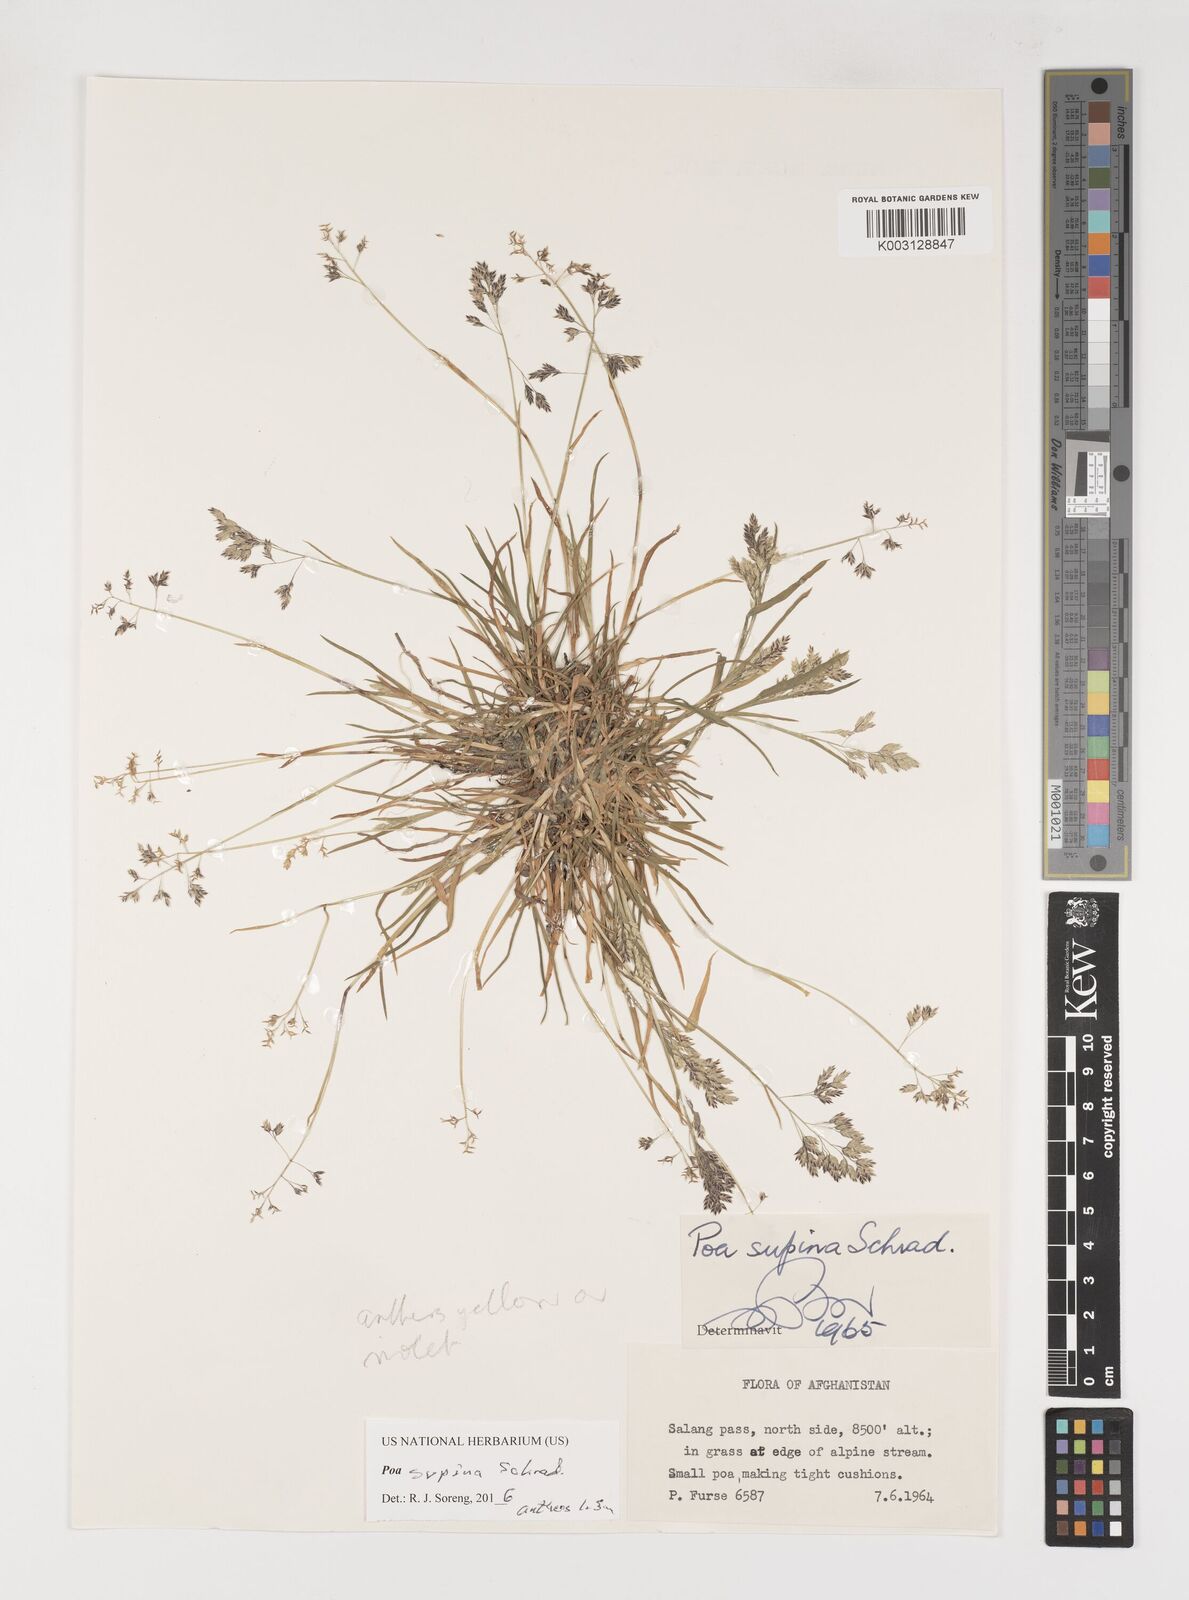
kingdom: Plantae
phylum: Tracheophyta
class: Liliopsida
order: Poales
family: Poaceae
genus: Poa
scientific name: Poa supina
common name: Supina bluegrass
